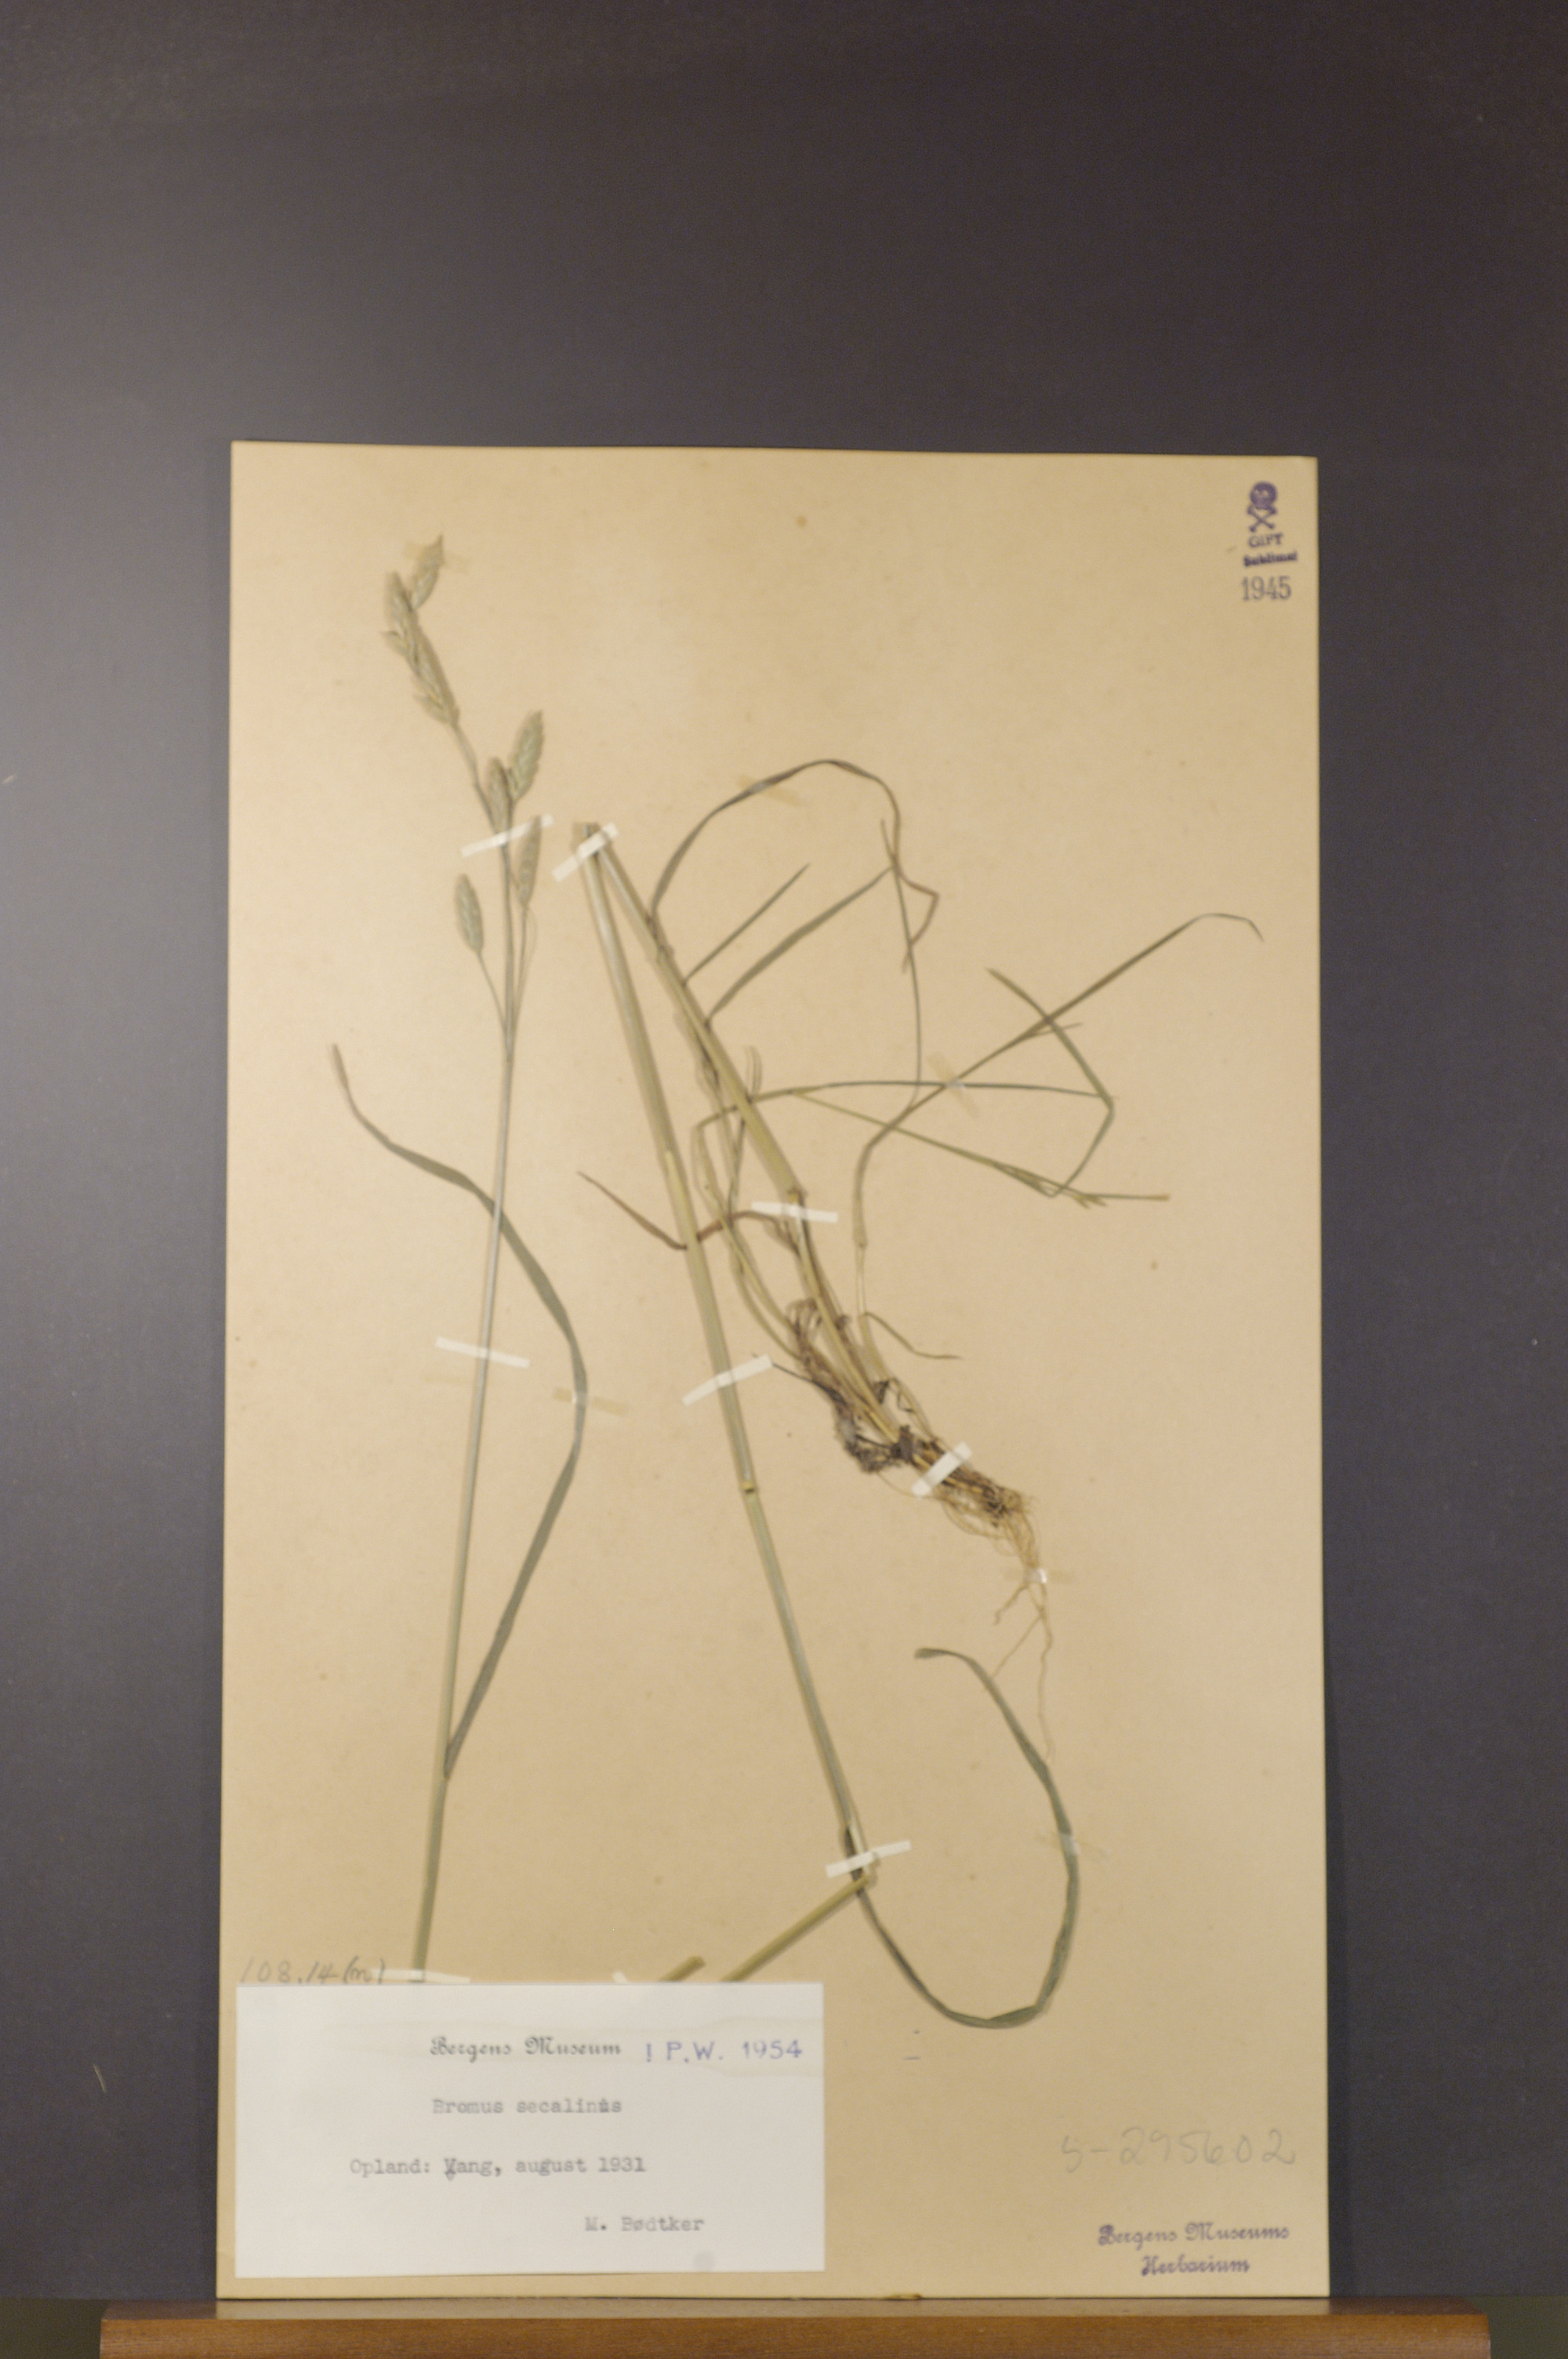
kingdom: Plantae
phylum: Tracheophyta
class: Liliopsida
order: Poales
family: Poaceae
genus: Bromus
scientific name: Bromus secalinus
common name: Rye brome
